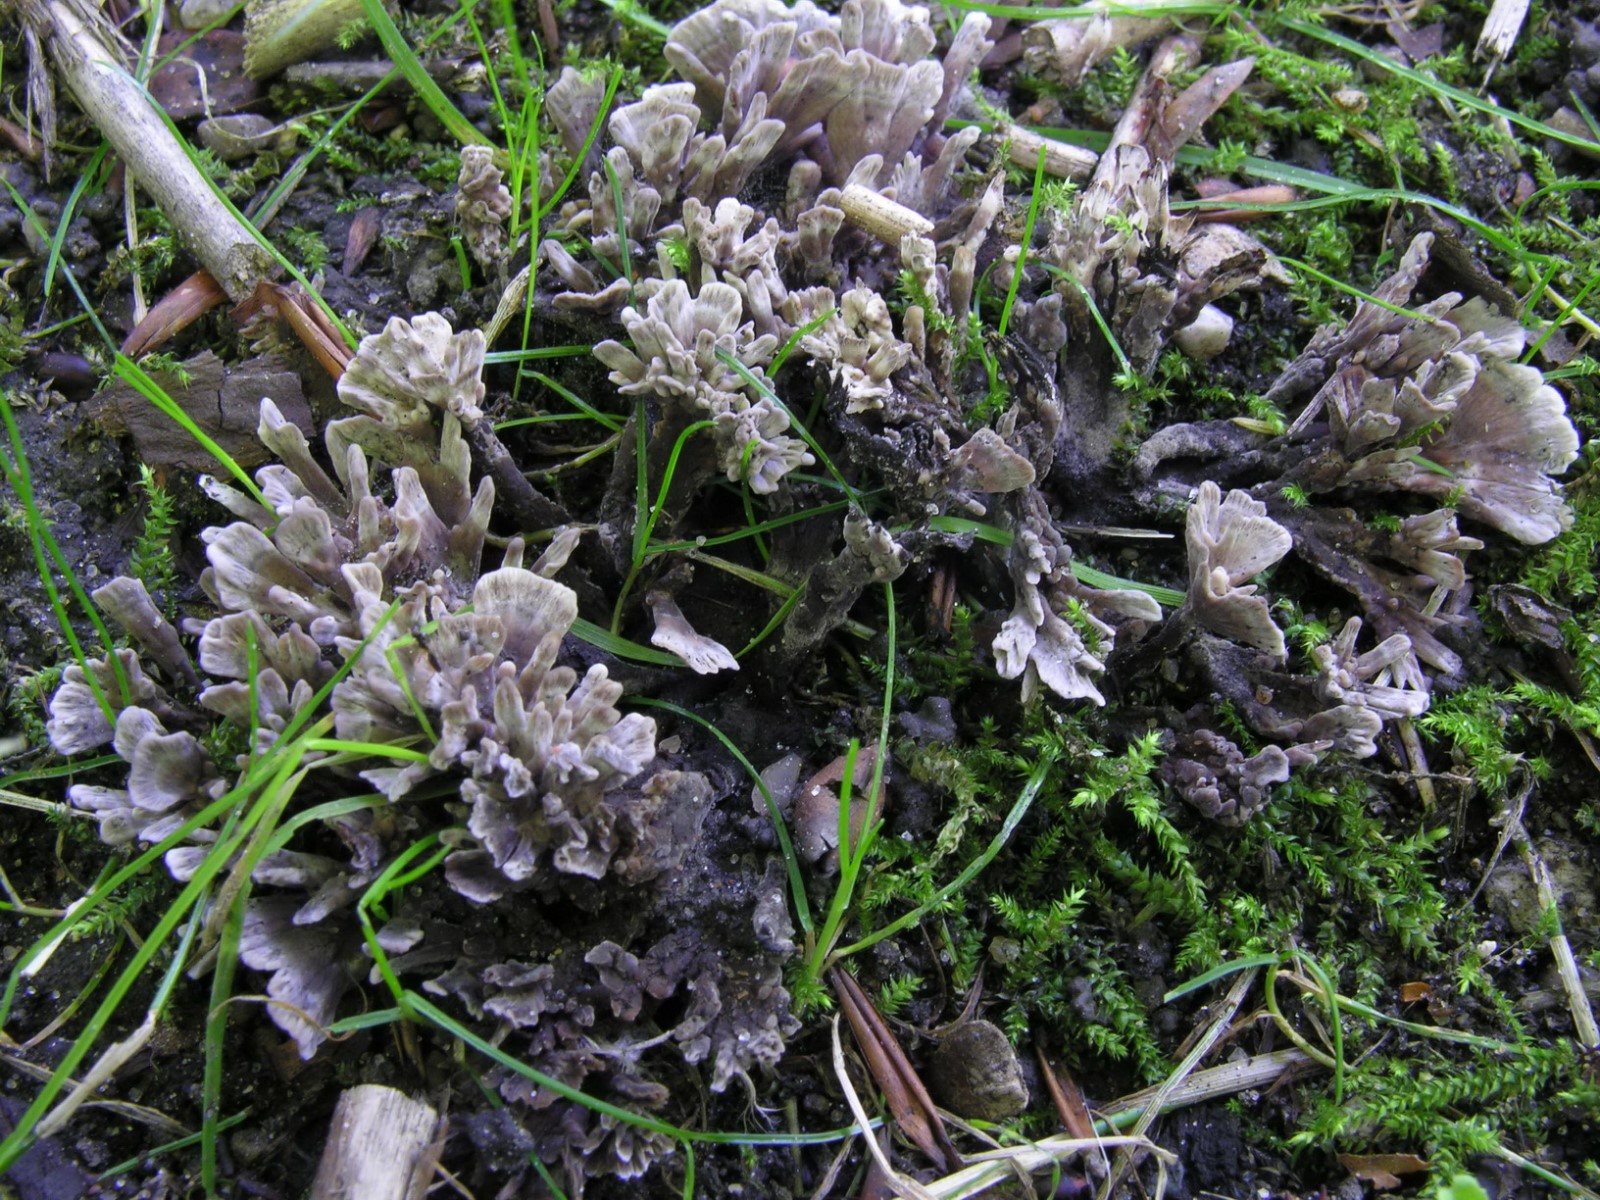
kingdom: Fungi
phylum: Basidiomycota
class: Agaricomycetes
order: Thelephorales
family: Thelephoraceae
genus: Thelephora
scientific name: Thelephora anthocephala
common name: busk-frynsesvamp
